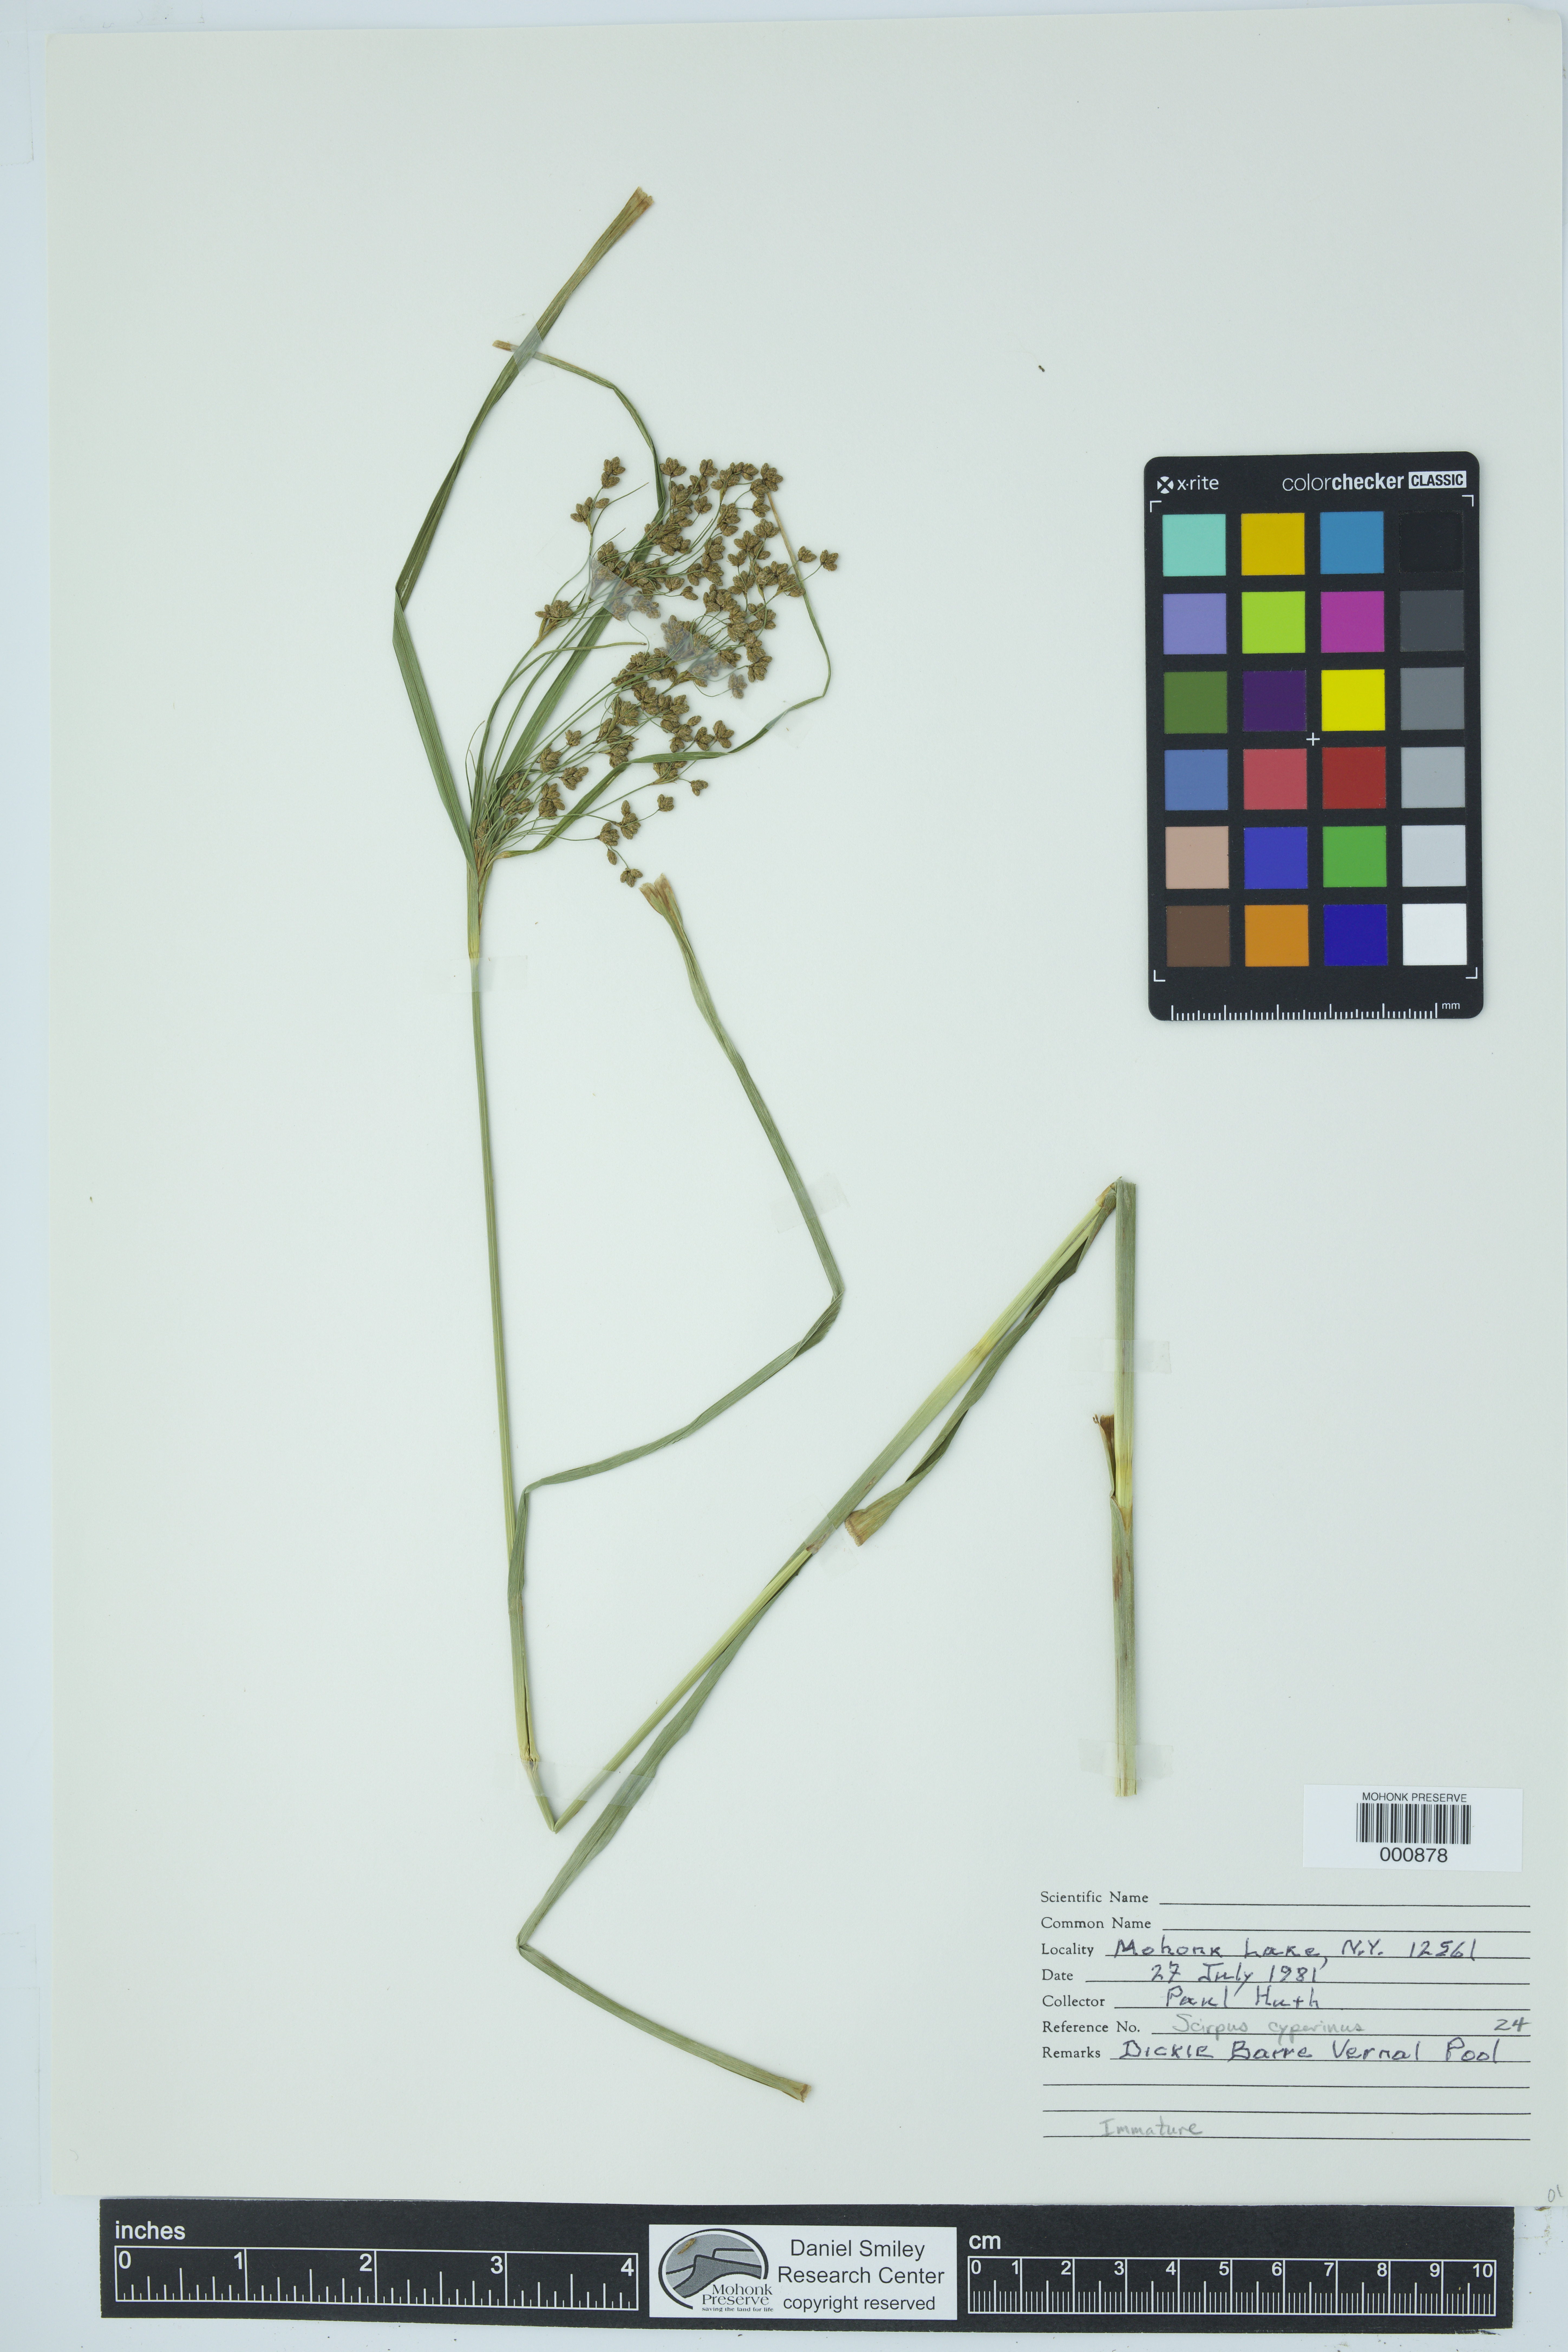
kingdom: Plantae
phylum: Tracheophyta
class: Liliopsida
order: Poales
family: Cyperaceae
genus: Scirpus
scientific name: Scirpus cyperinus
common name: Black-sheathed bulrush
